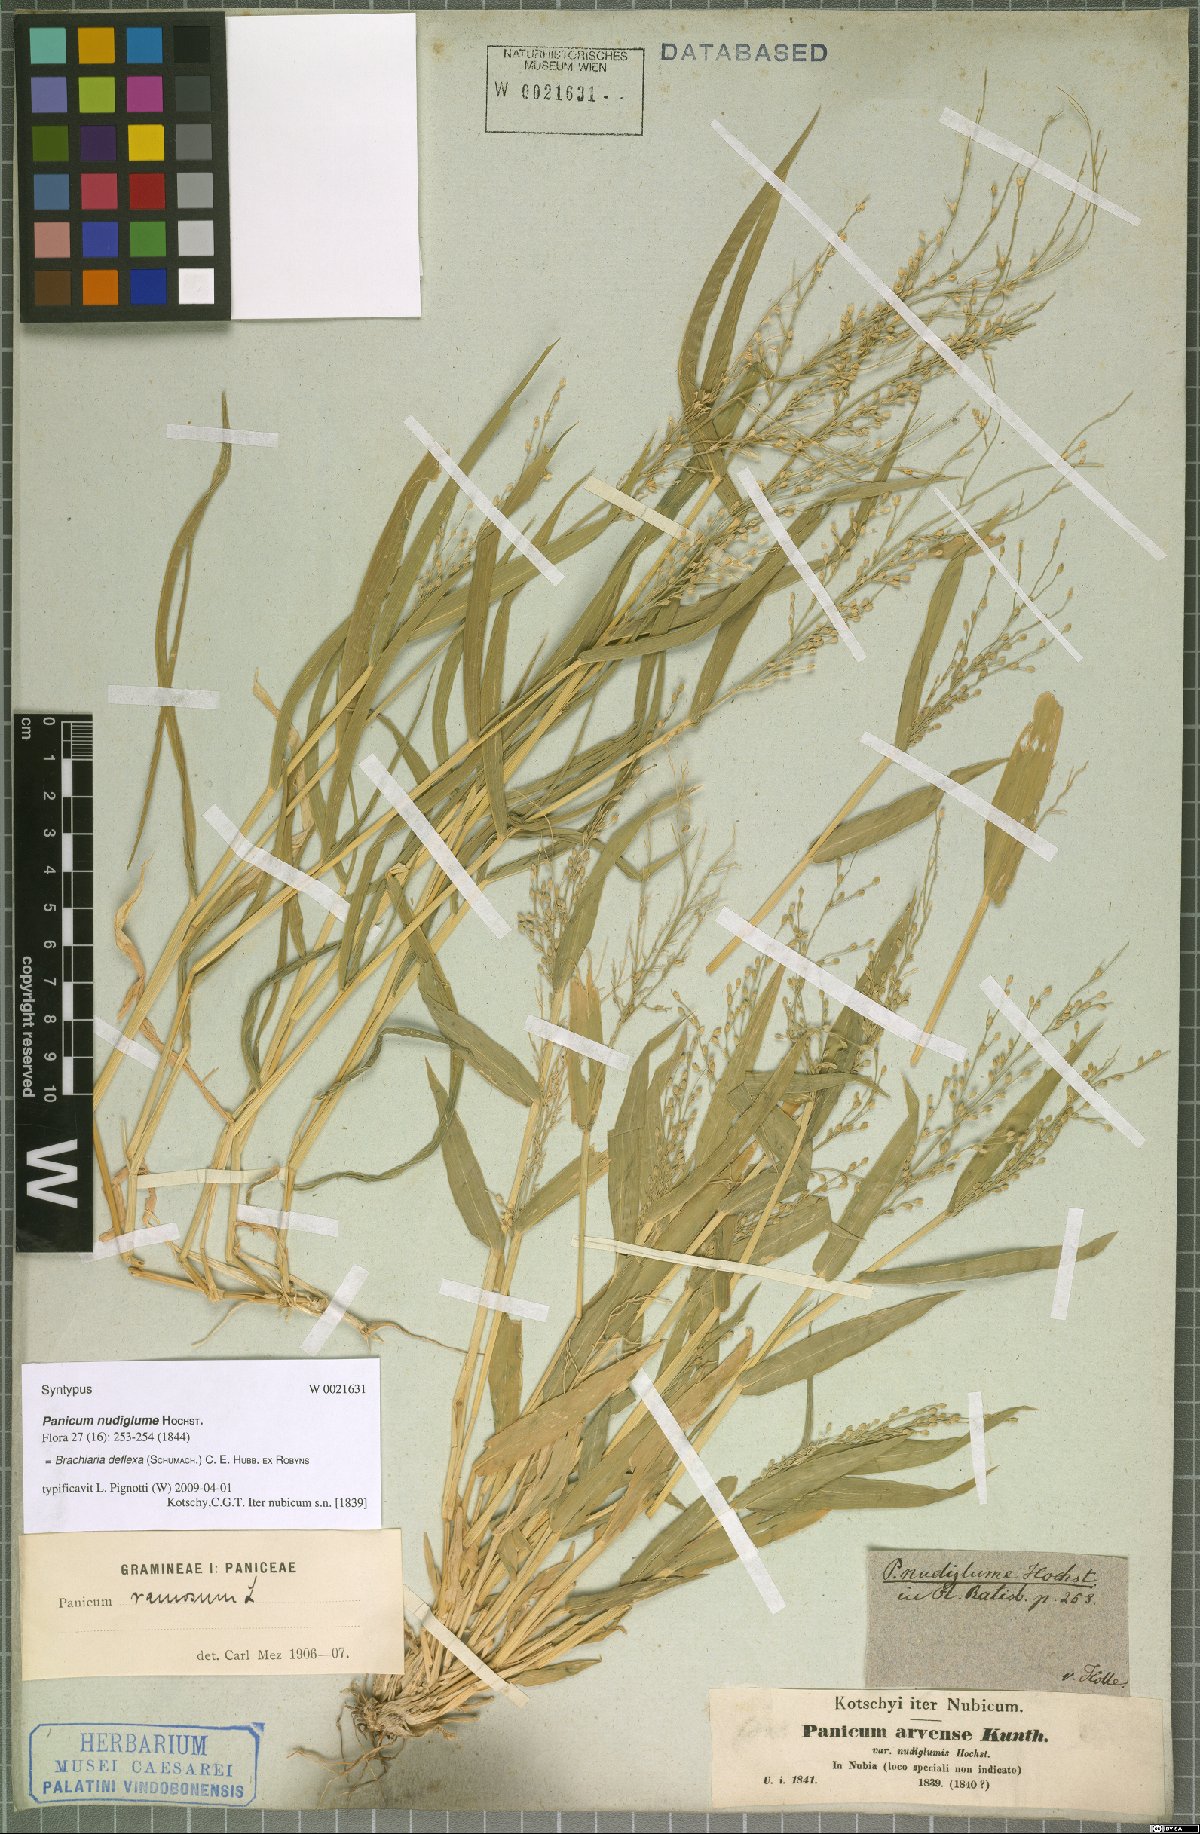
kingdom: Plantae
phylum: Tracheophyta
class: Liliopsida
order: Poales
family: Poaceae
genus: Urochloa
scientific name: Urochloa deflexa
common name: Guinea millet
